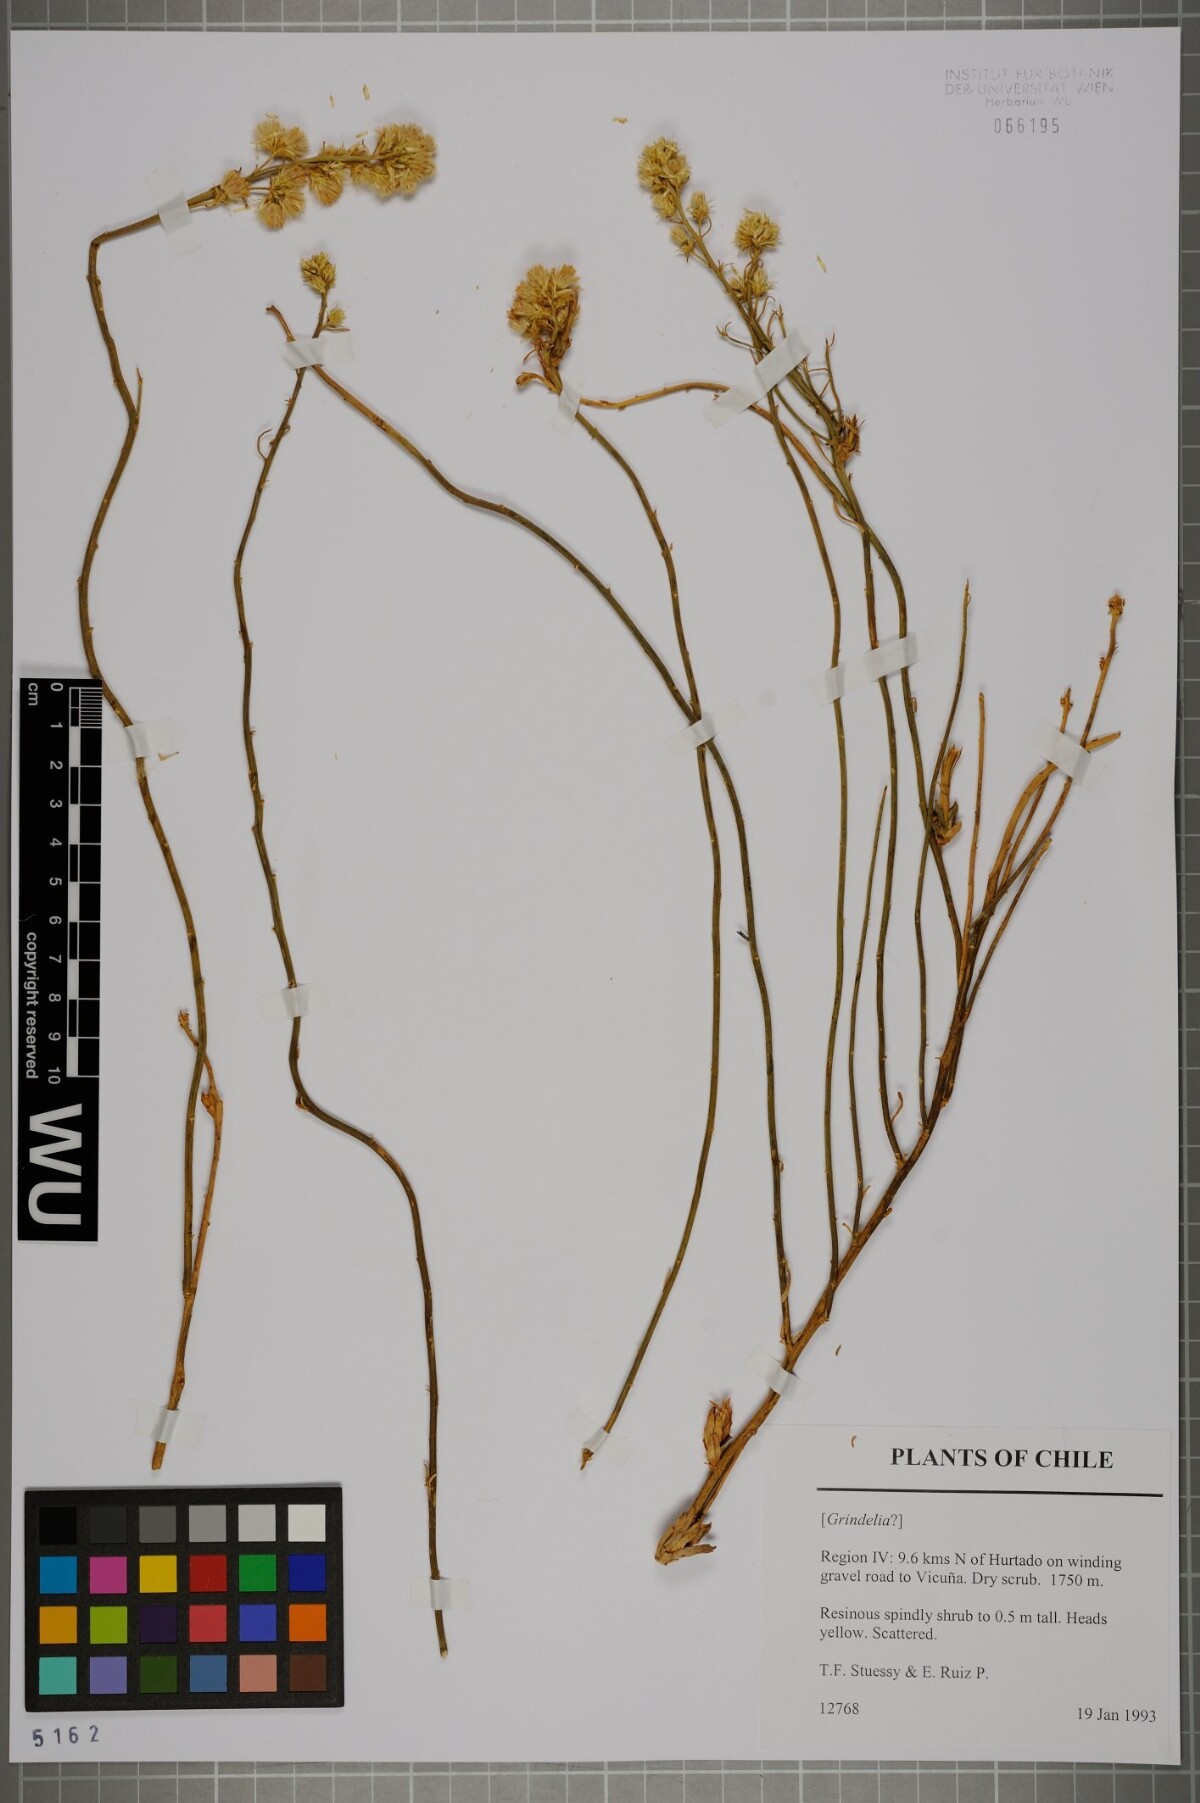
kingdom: Plantae
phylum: Tracheophyta
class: Magnoliopsida
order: Asterales
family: Asteraceae
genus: Guynesomia
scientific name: Guynesomia scoparia
